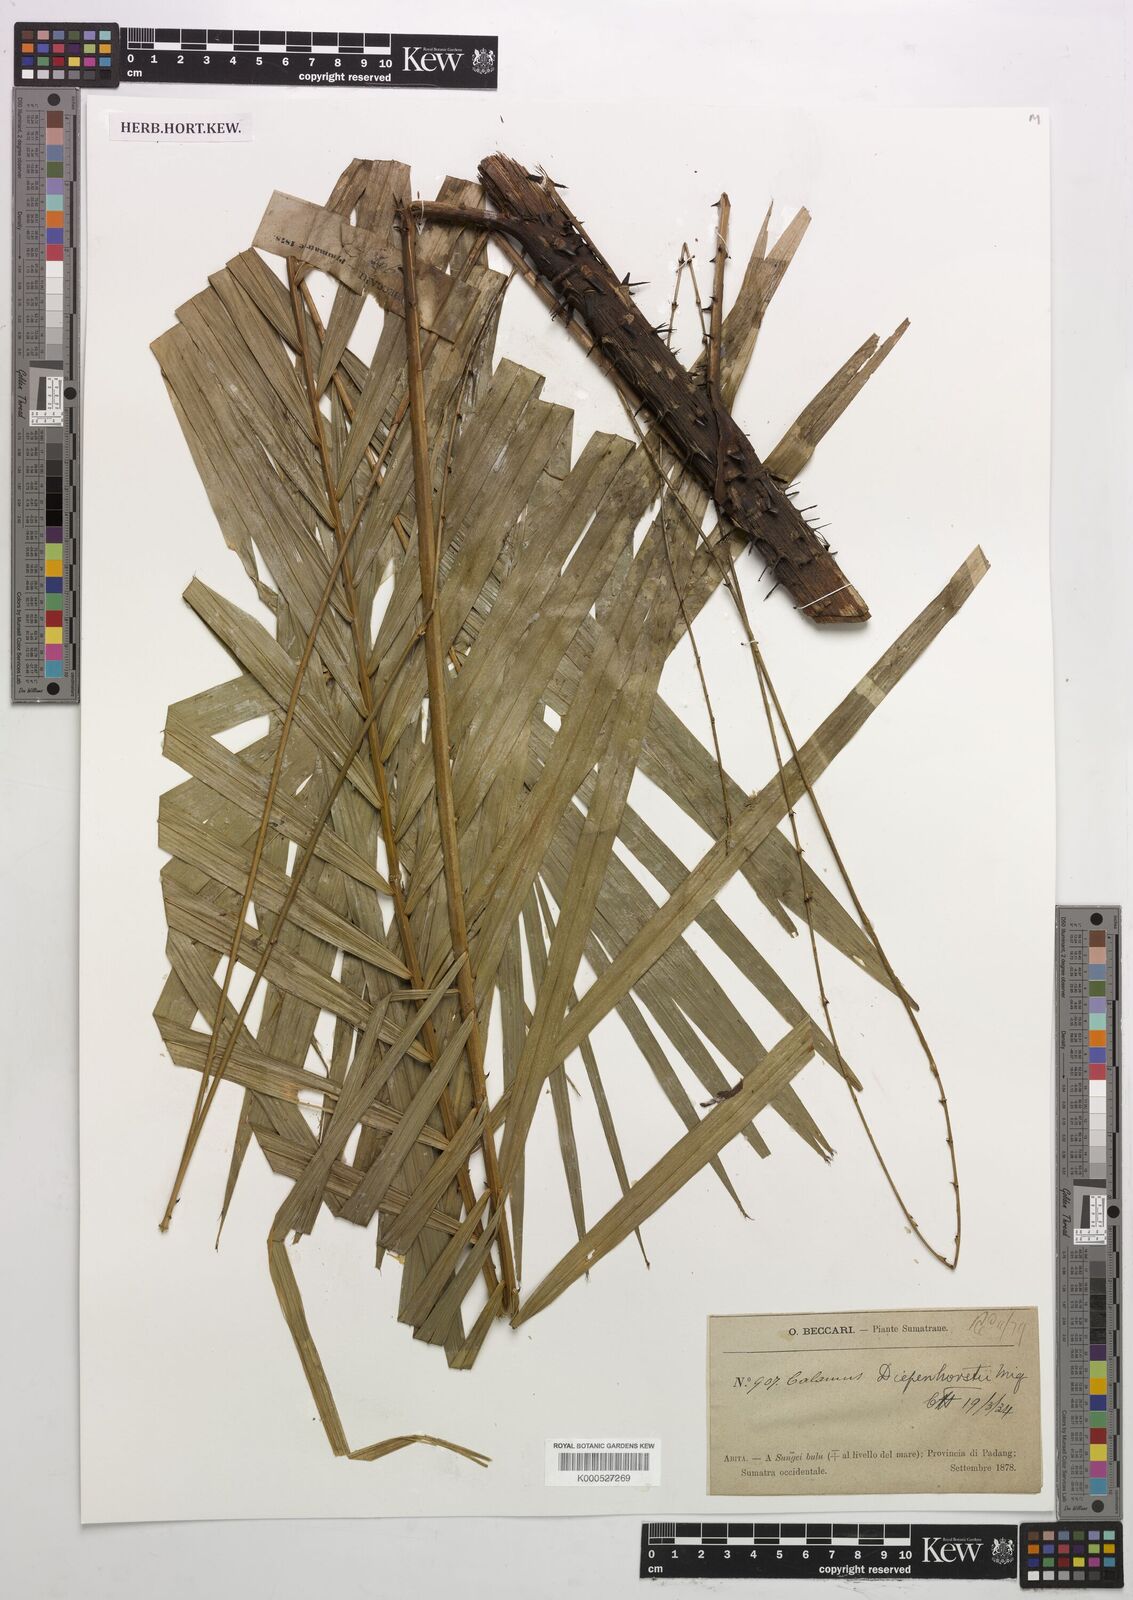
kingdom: Plantae
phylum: Tracheophyta
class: Liliopsida
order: Arecales
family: Arecaceae
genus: Calamus
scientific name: Calamus diepenhorstii
